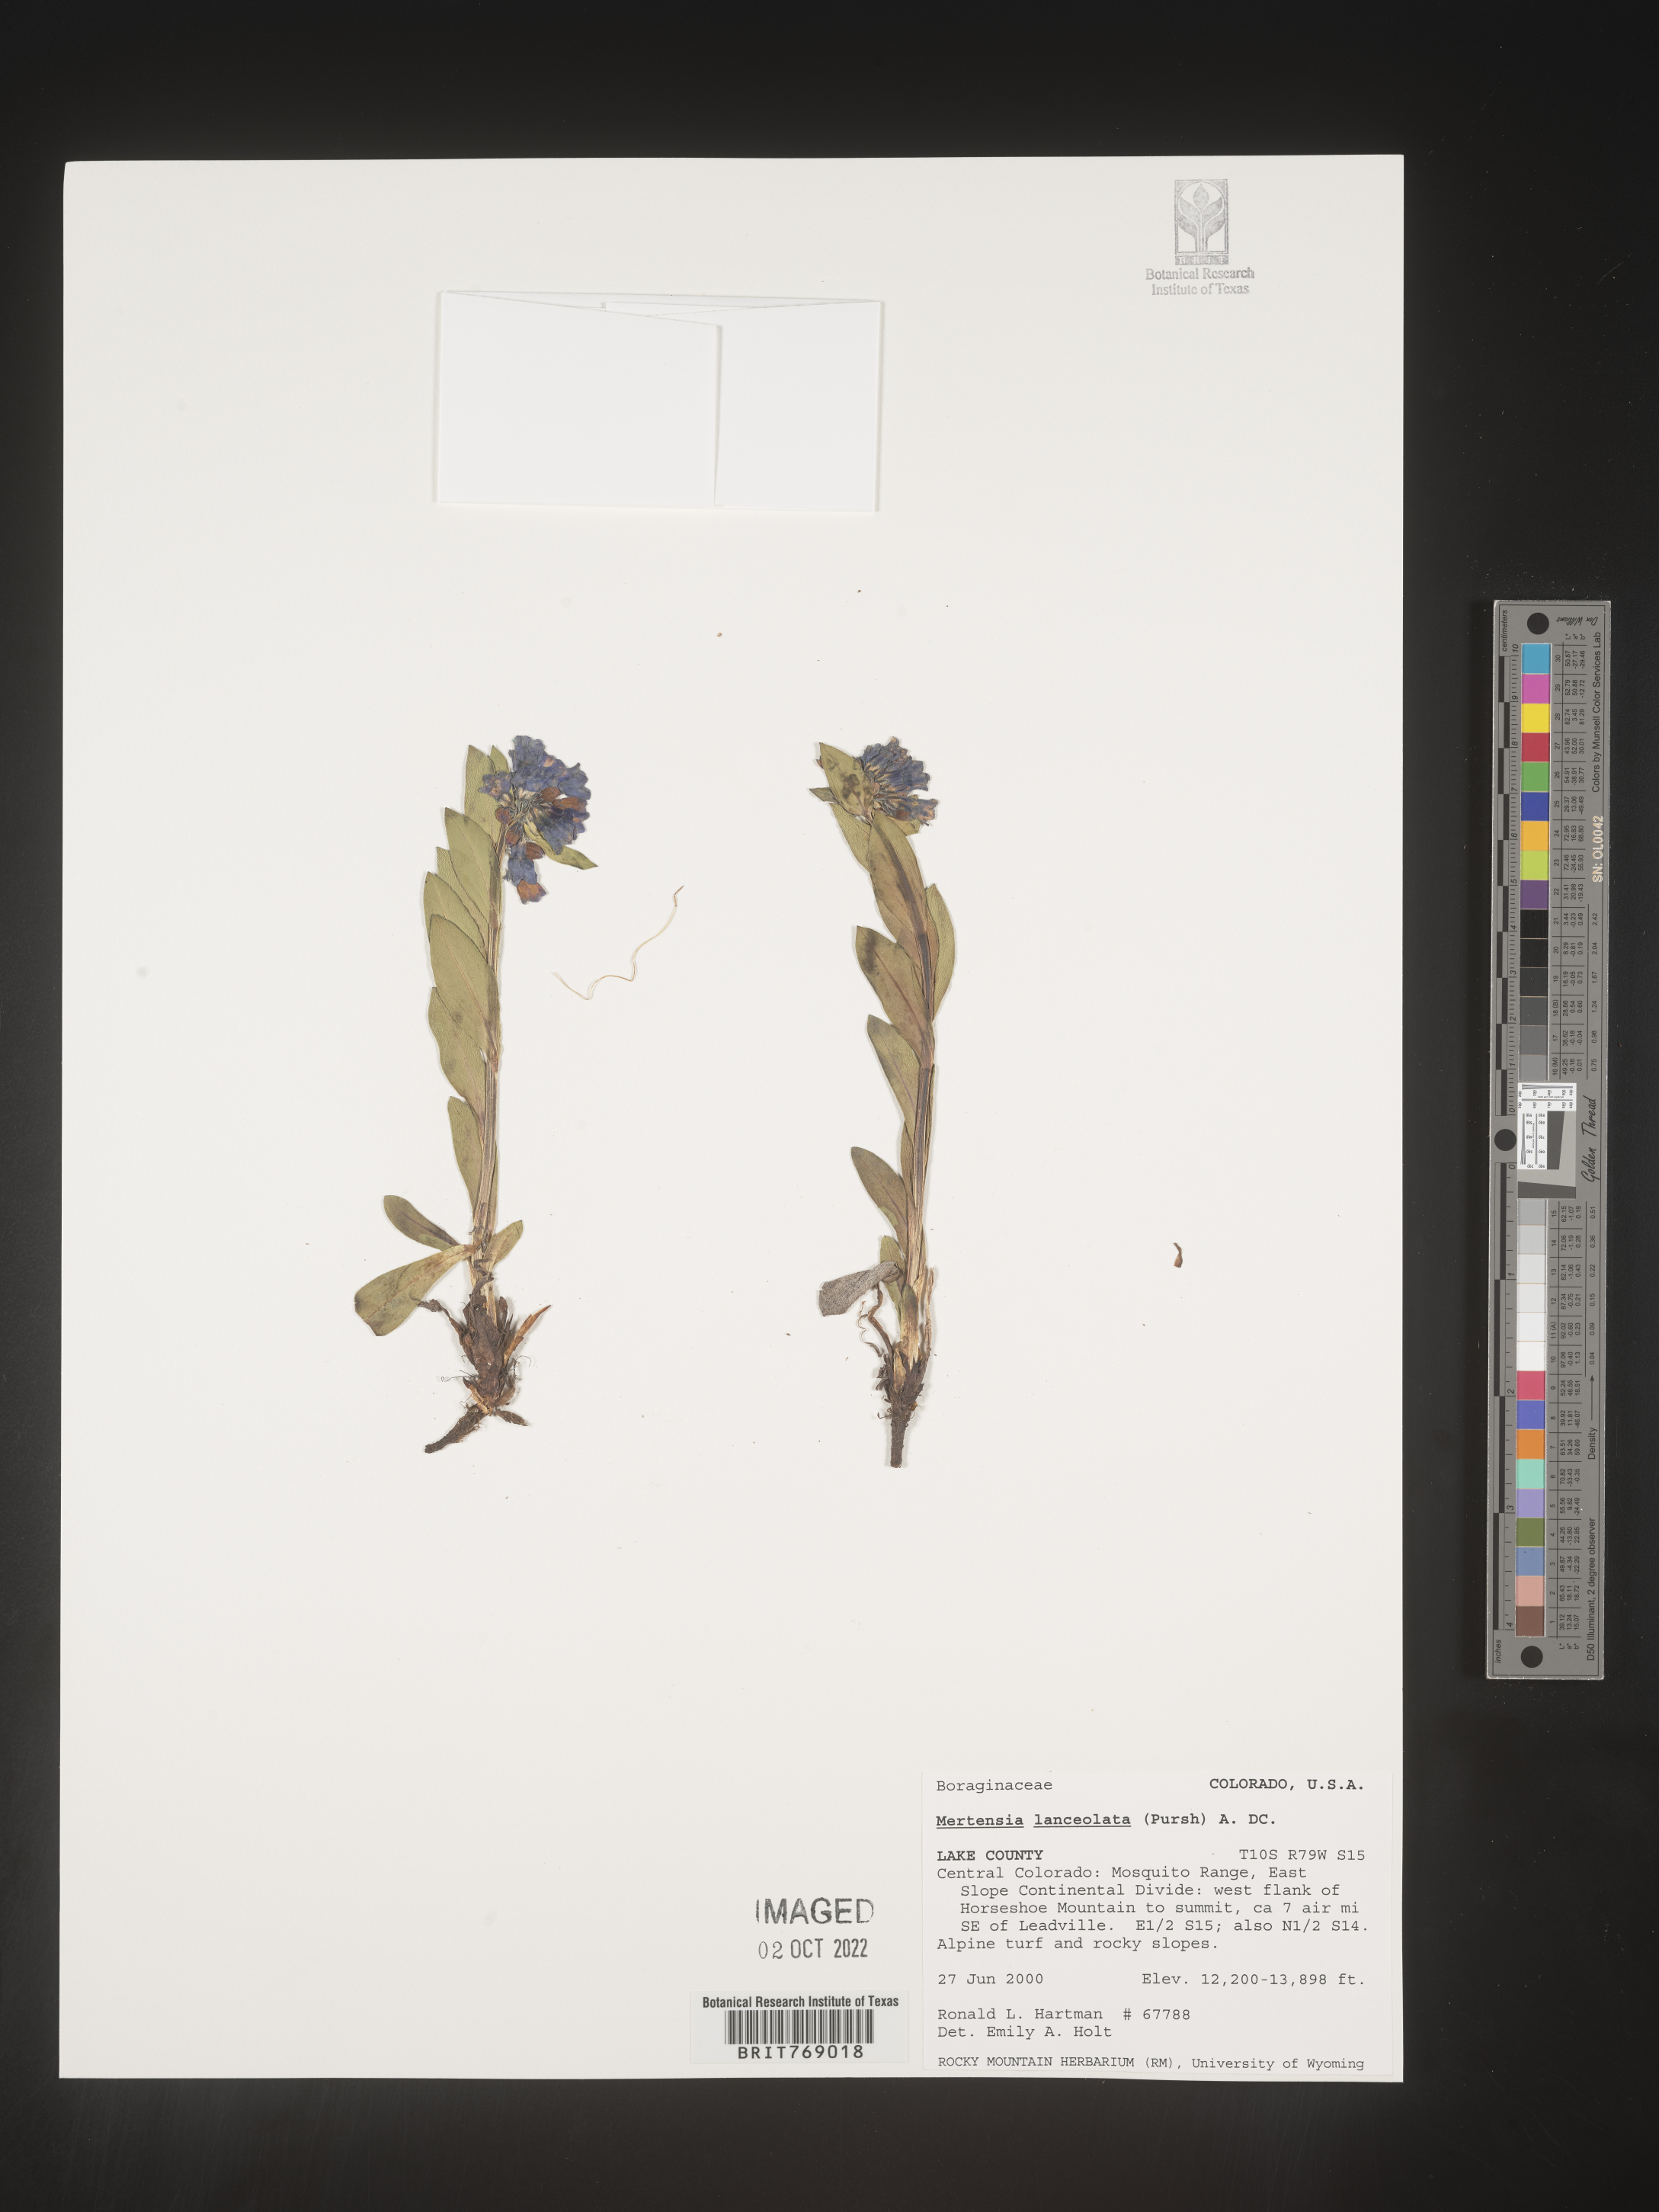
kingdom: Plantae
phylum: Tracheophyta
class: Magnoliopsida
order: Boraginales
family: Boraginaceae
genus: Mertensia
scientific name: Mertensia
